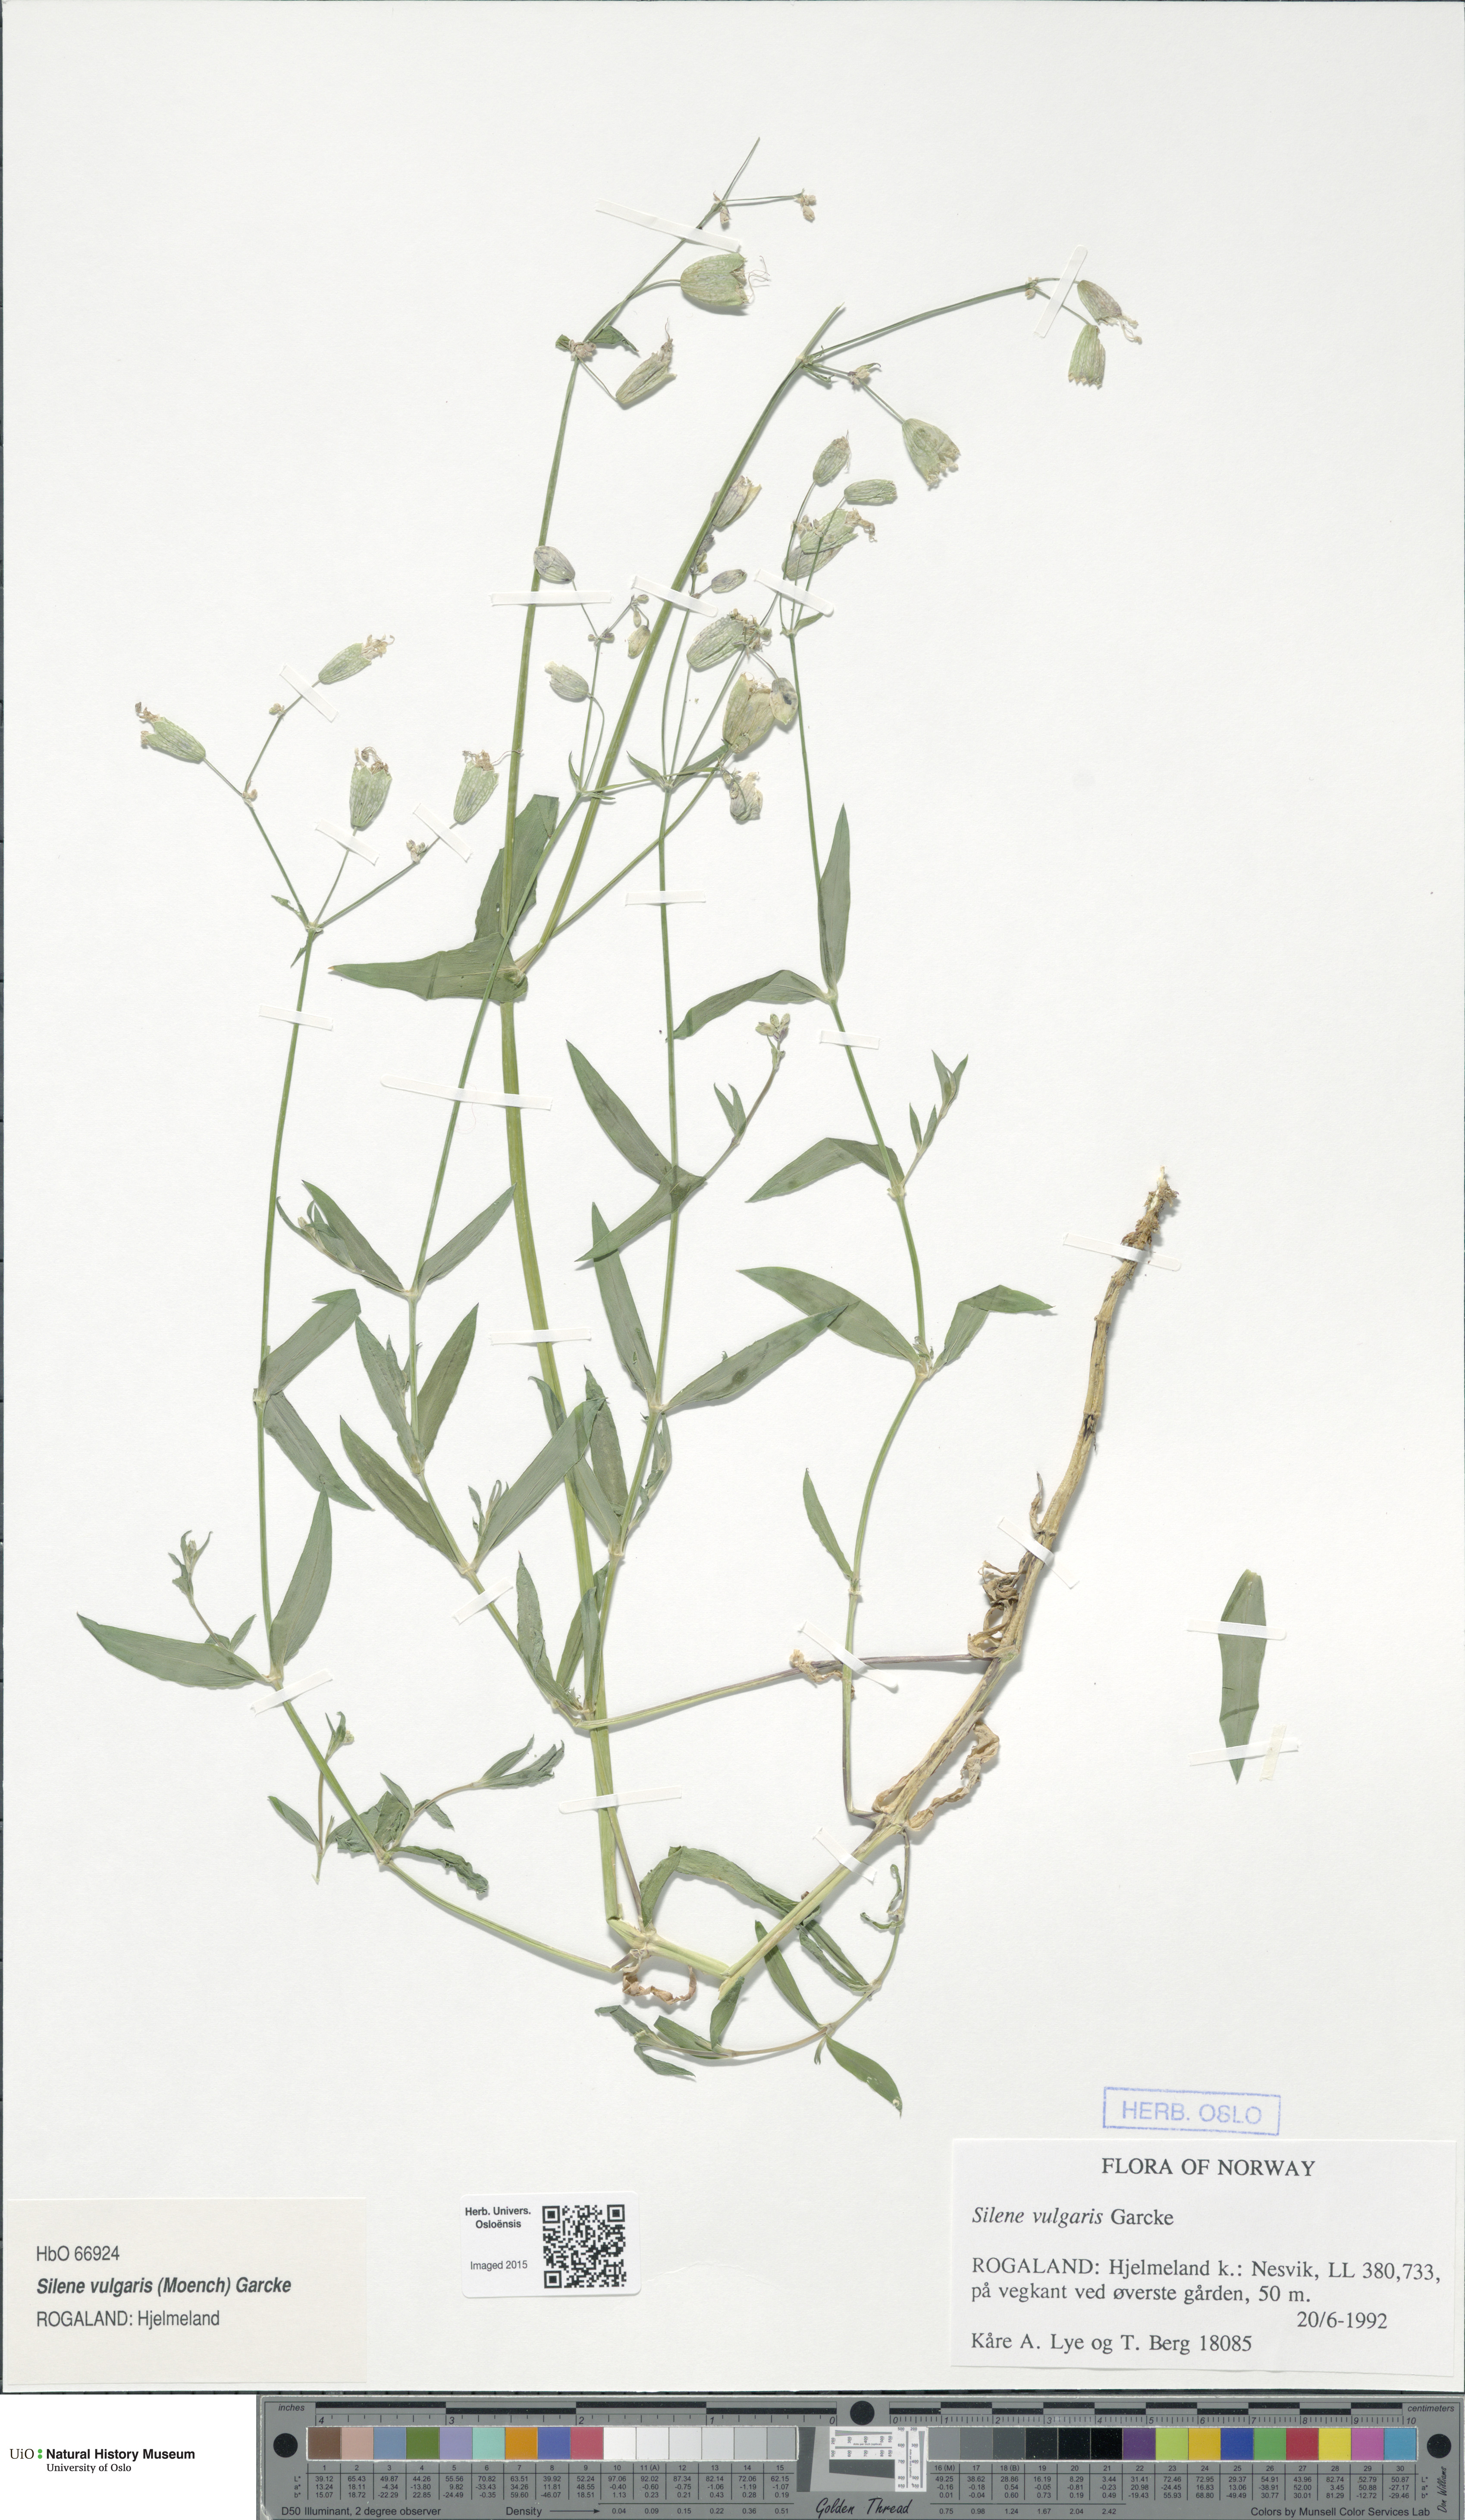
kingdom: Plantae
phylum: Tracheophyta
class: Magnoliopsida
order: Caryophyllales
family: Caryophyllaceae
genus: Silene
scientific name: Silene vulgaris
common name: Bladder campion
